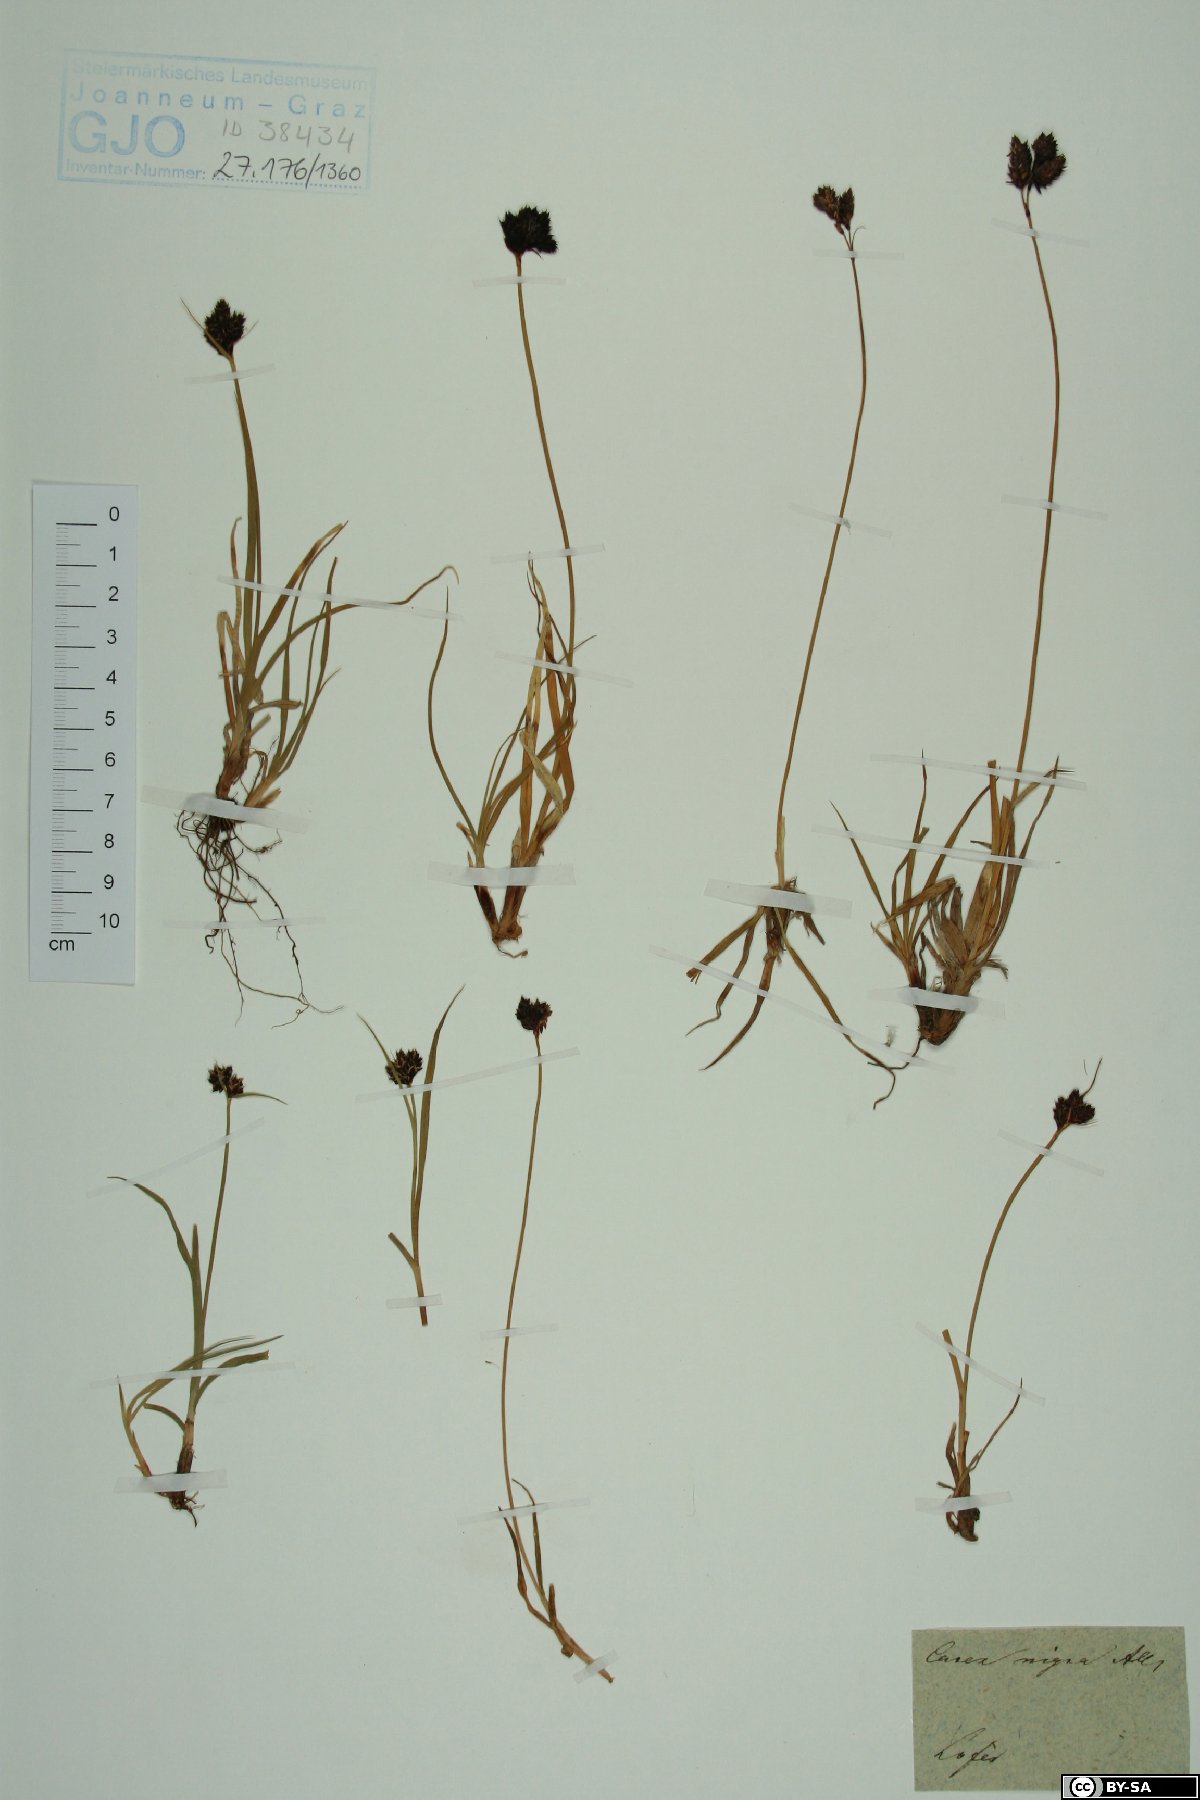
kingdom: Plantae
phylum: Tracheophyta
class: Liliopsida
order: Poales
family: Cyperaceae
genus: Carex
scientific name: Carex nigra
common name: Common sedge
